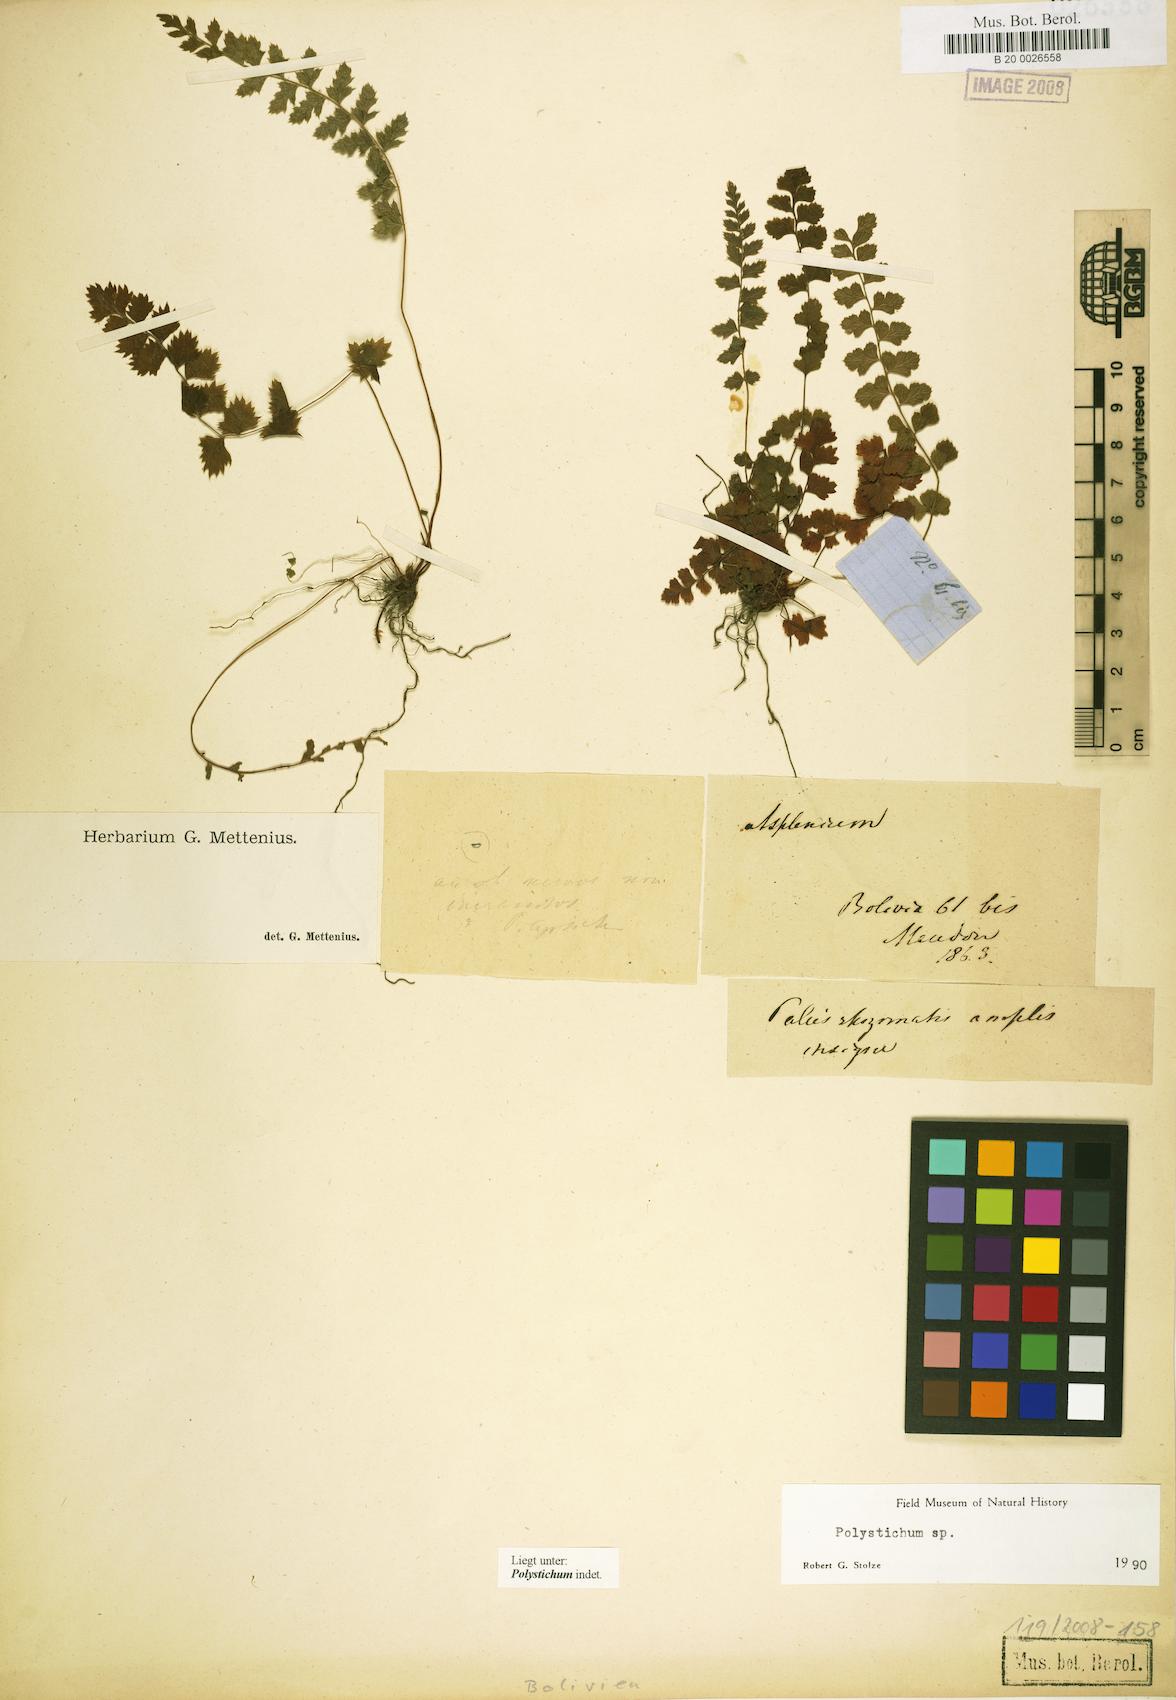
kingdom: Plantae
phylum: Tracheophyta
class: Polypodiopsida
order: Polypodiales
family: Dryopteridaceae
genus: Polystichum
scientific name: Polystichum
